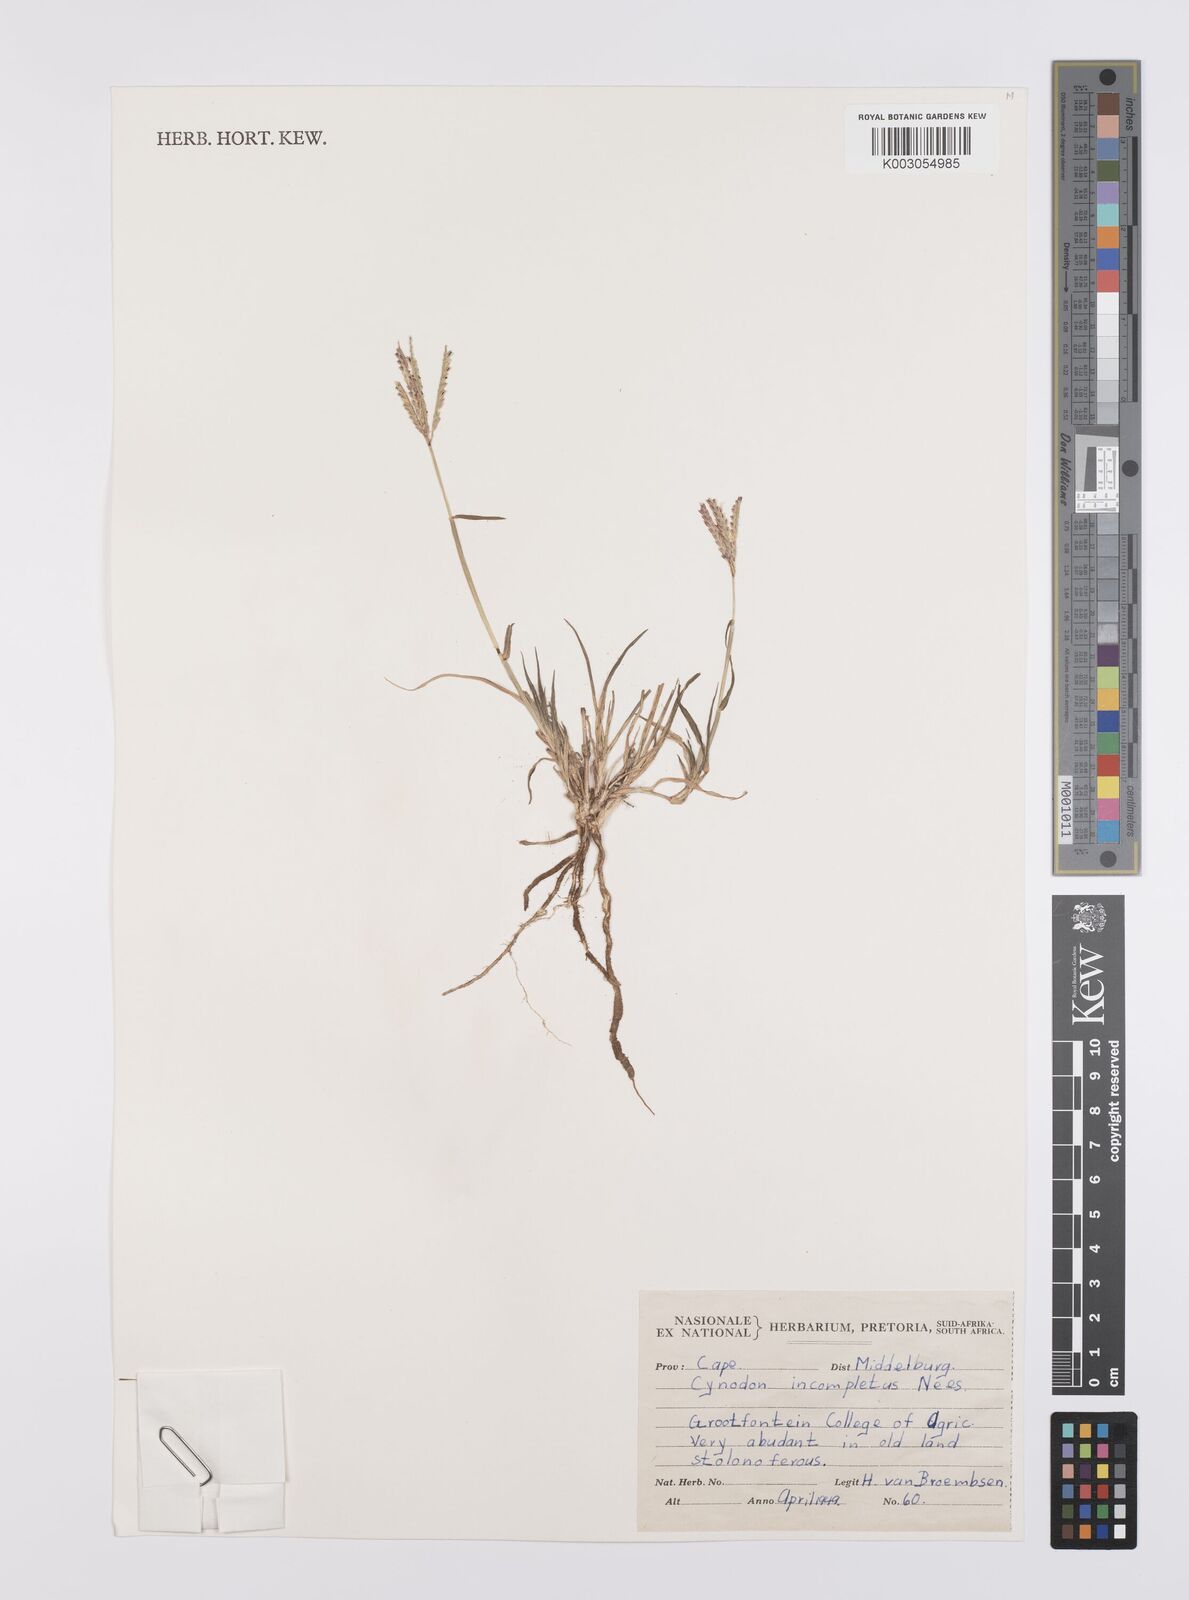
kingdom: Plantae
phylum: Tracheophyta
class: Liliopsida
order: Poales
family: Poaceae
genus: Cynodon
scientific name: Cynodon incompletus
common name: African bermuda-grass
